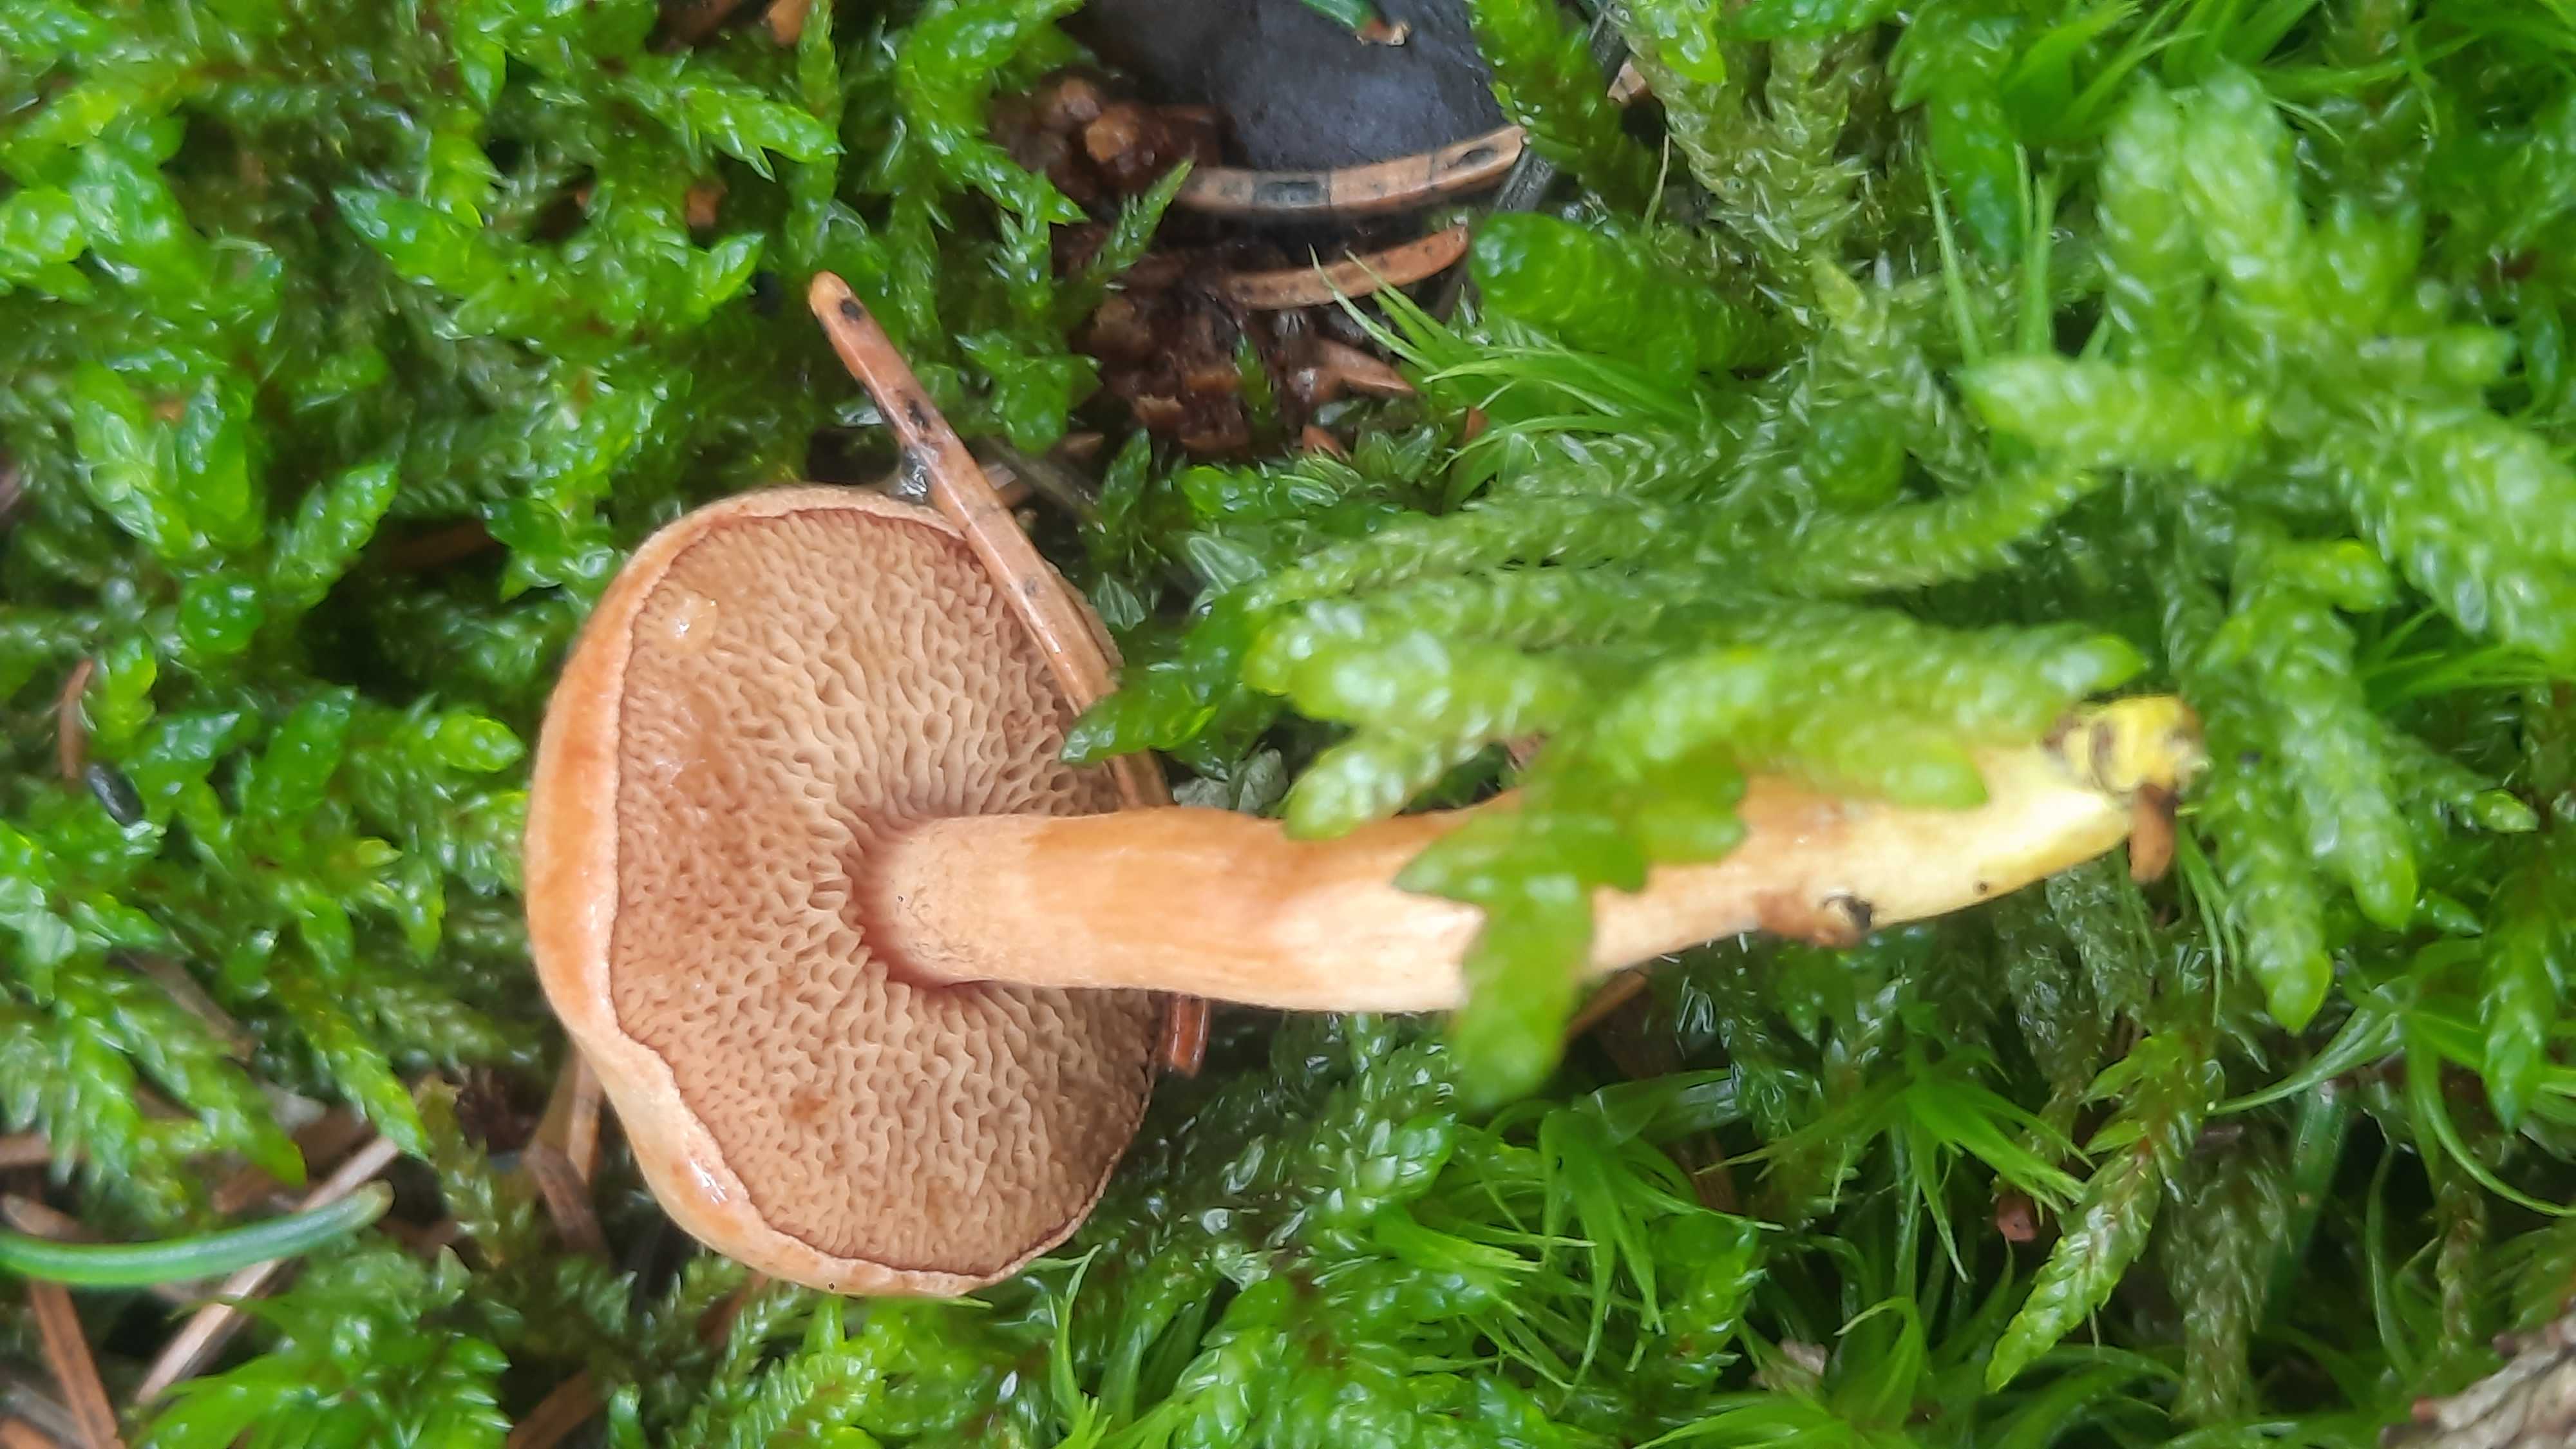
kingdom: Fungi
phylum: Basidiomycota
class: Agaricomycetes
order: Boletales
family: Boletaceae
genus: Chalciporus
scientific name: Chalciporus piperatus
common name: peberrørhat
